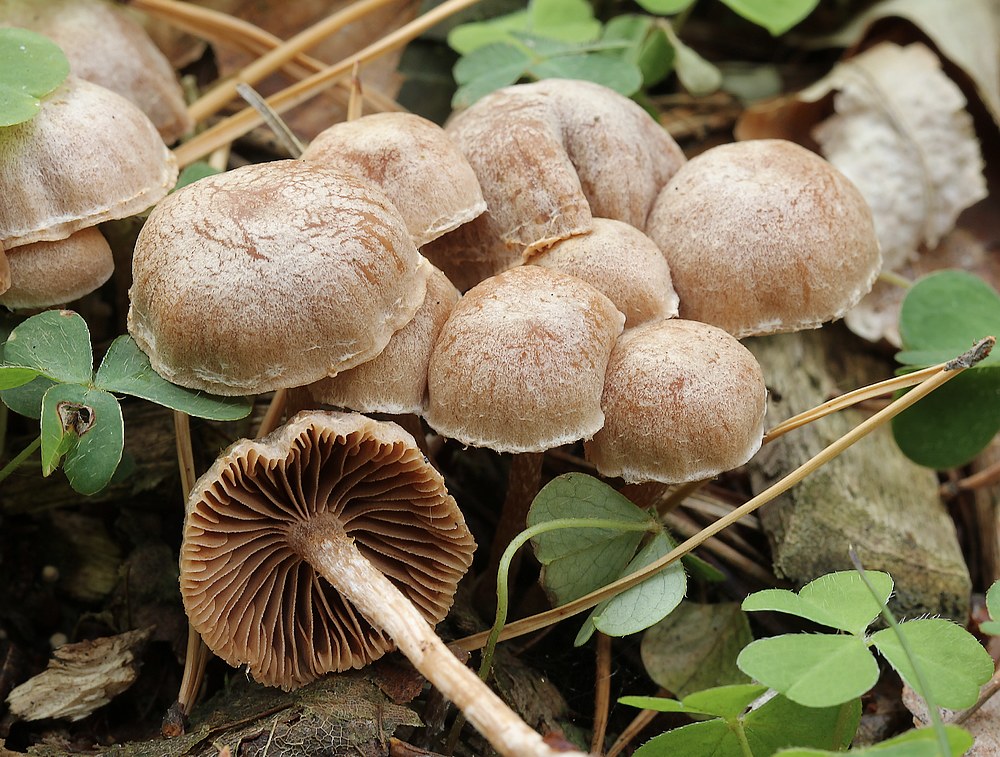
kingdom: Fungi
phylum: Basidiomycota
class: Agaricomycetes
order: Agaricales
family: Tubariaceae
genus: Tubaria
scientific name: Tubaria conspersa
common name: bleg fnughat
